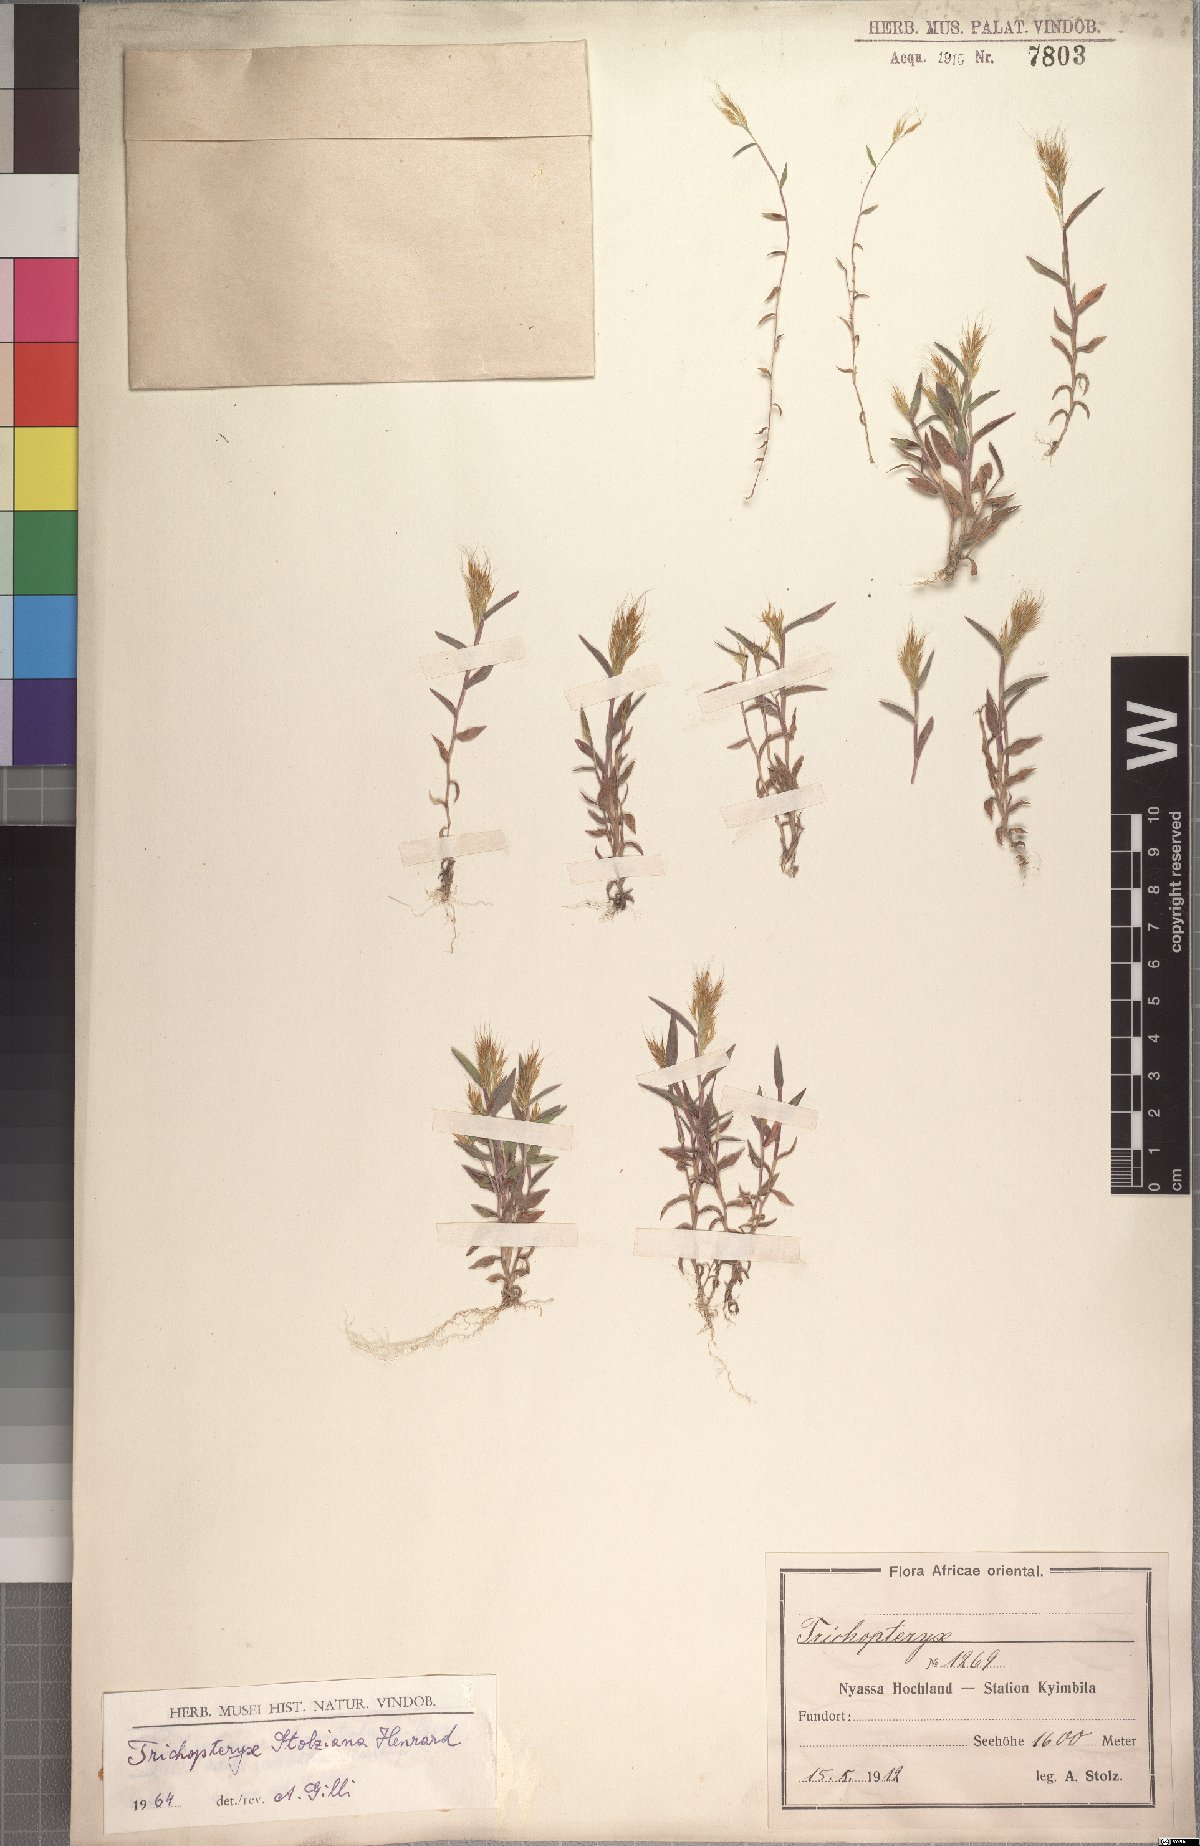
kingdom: Plantae
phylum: Tracheophyta
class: Liliopsida
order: Poales
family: Poaceae
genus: Trichopteryx
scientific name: Trichopteryx stolziana
